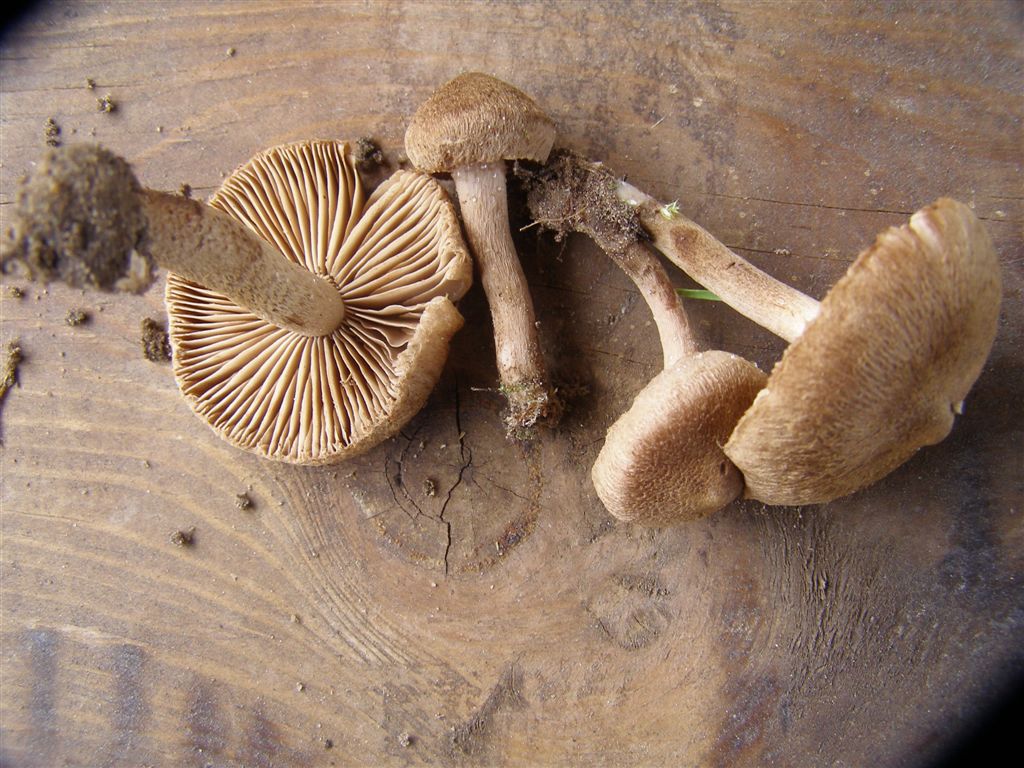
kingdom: Fungi
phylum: Basidiomycota
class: Agaricomycetes
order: Agaricales
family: Inocybaceae
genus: Inocybe
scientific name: Inocybe lacera
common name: laset trævlhat
